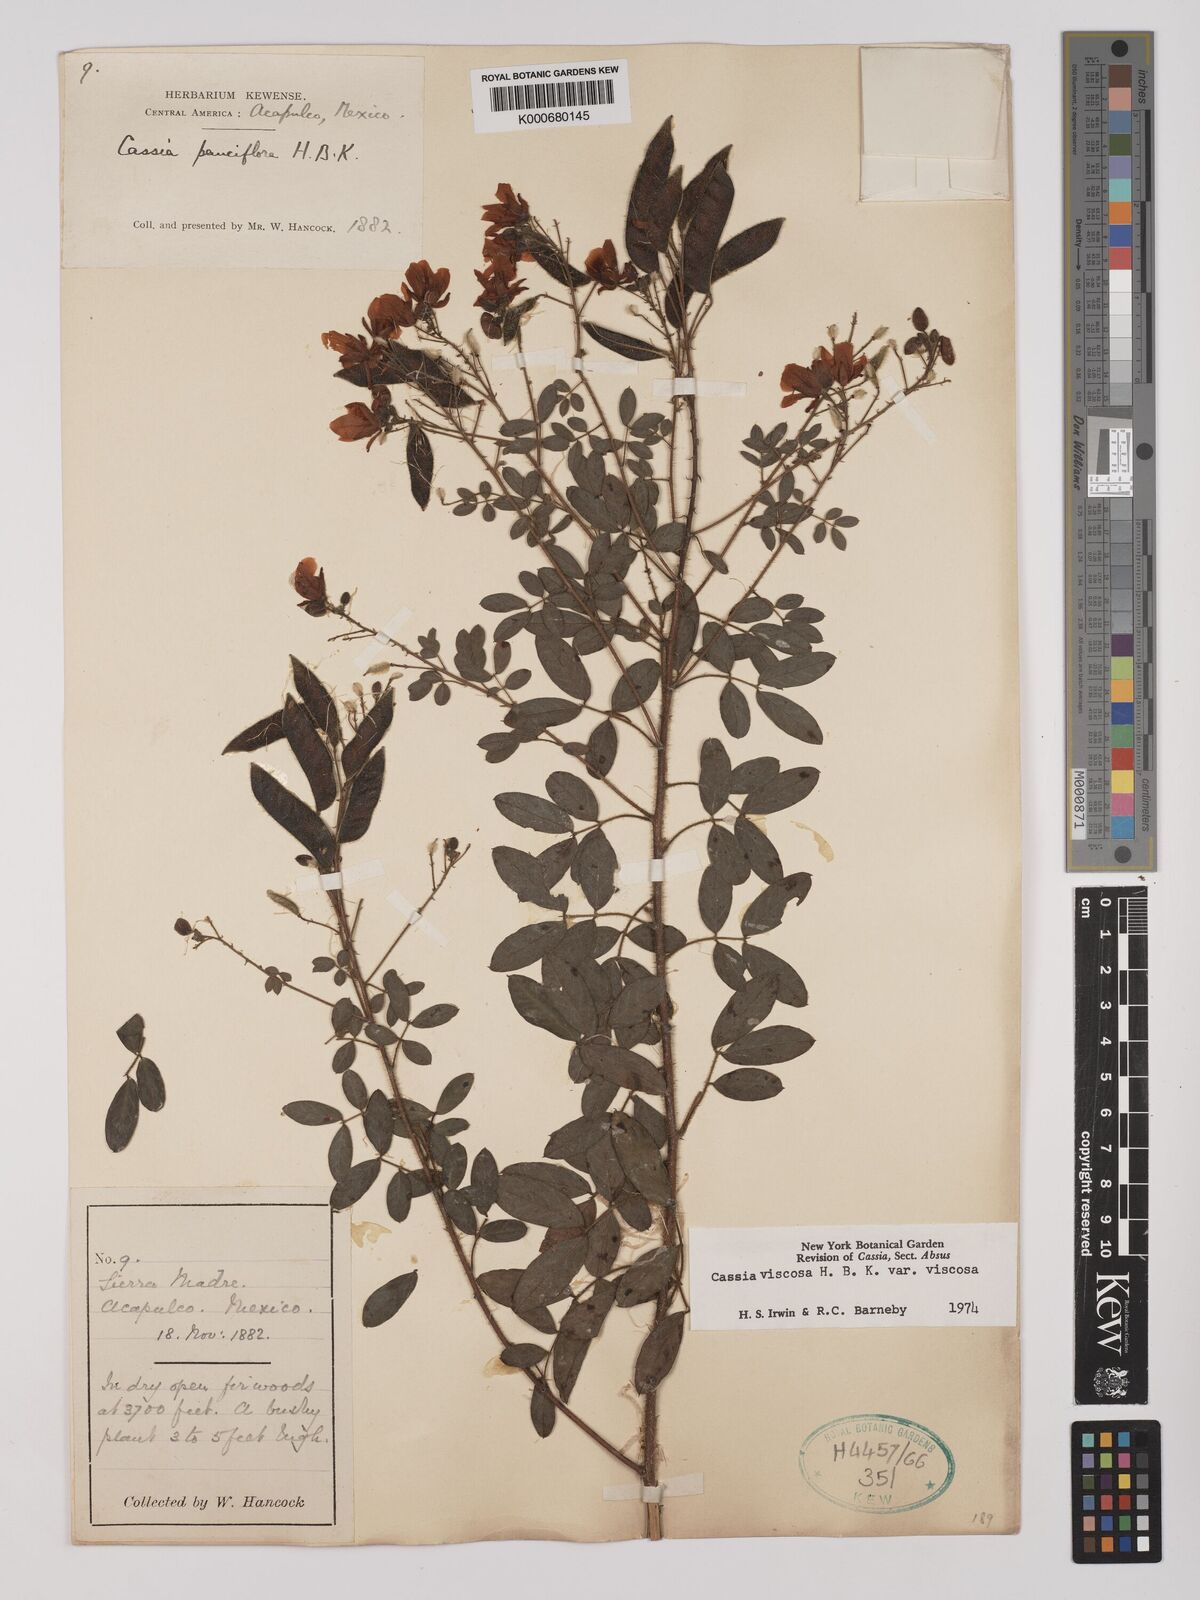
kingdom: Plantae
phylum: Tracheophyta
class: Magnoliopsida
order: Fabales
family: Fabaceae
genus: Chamaecrista
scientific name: Chamaecrista
